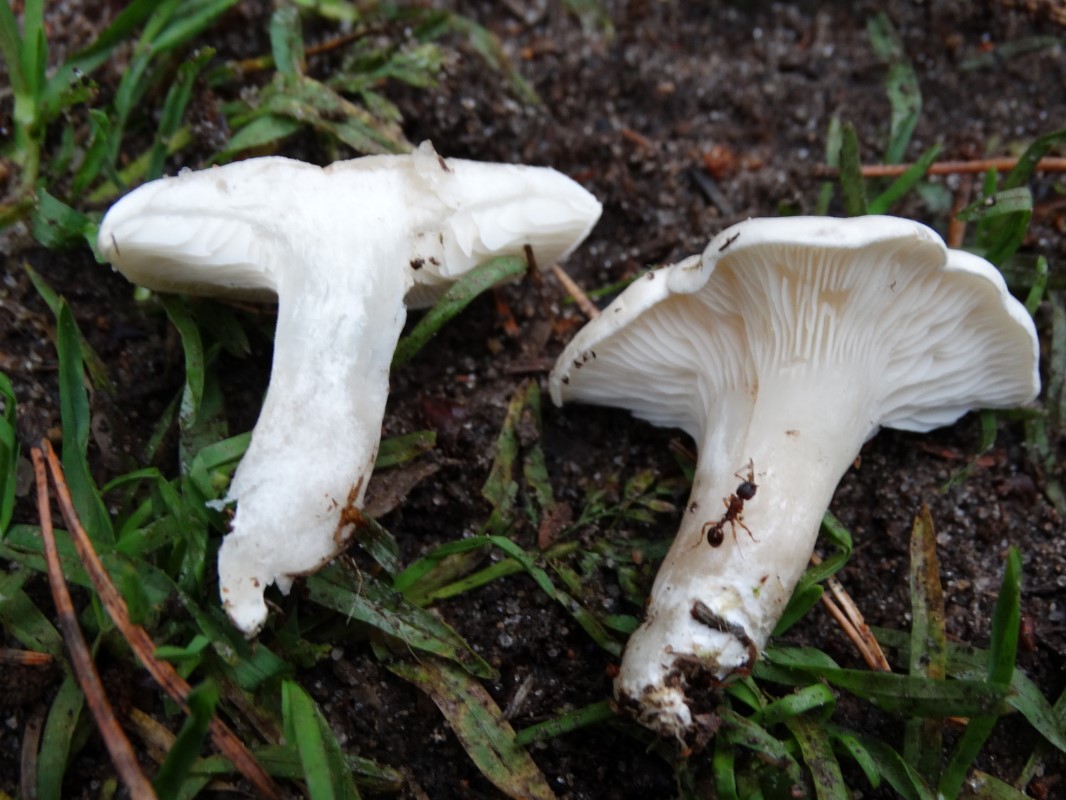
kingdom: Fungi
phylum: Basidiomycota
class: Agaricomycetes
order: Agaricales
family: Entolomataceae
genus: Clitopilus
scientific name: Clitopilus prunulus
